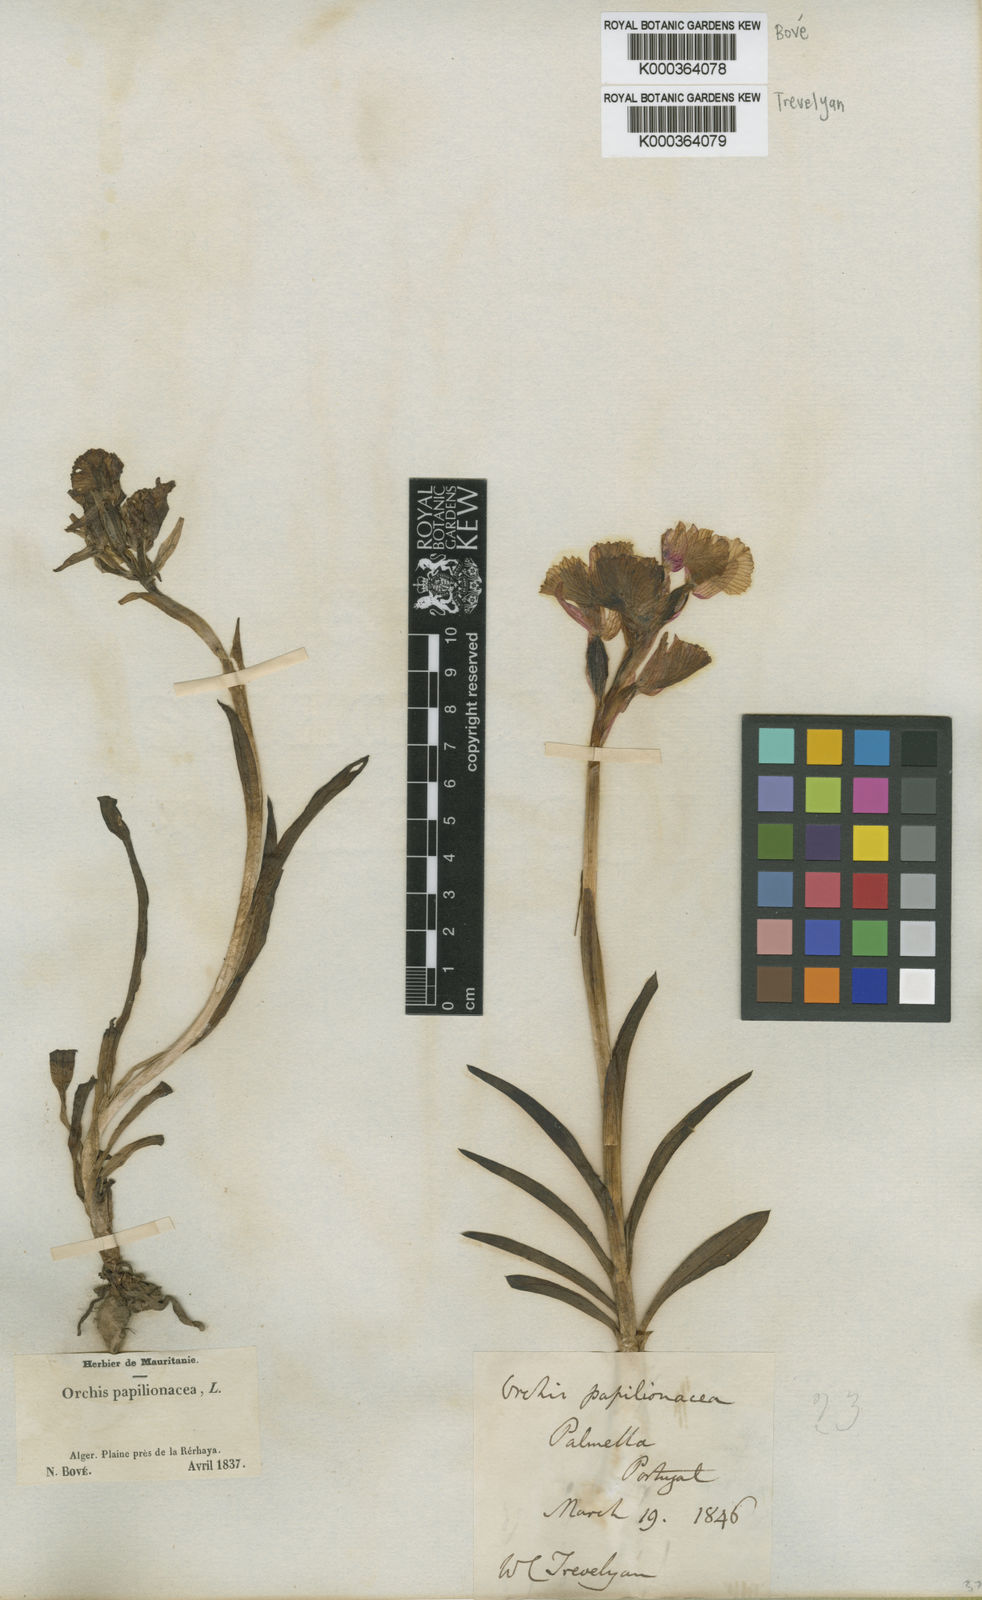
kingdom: Plantae
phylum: Tracheophyta
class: Liliopsida
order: Asparagales
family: Orchidaceae
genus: Anacamptis
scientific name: Anacamptis papilionacea
